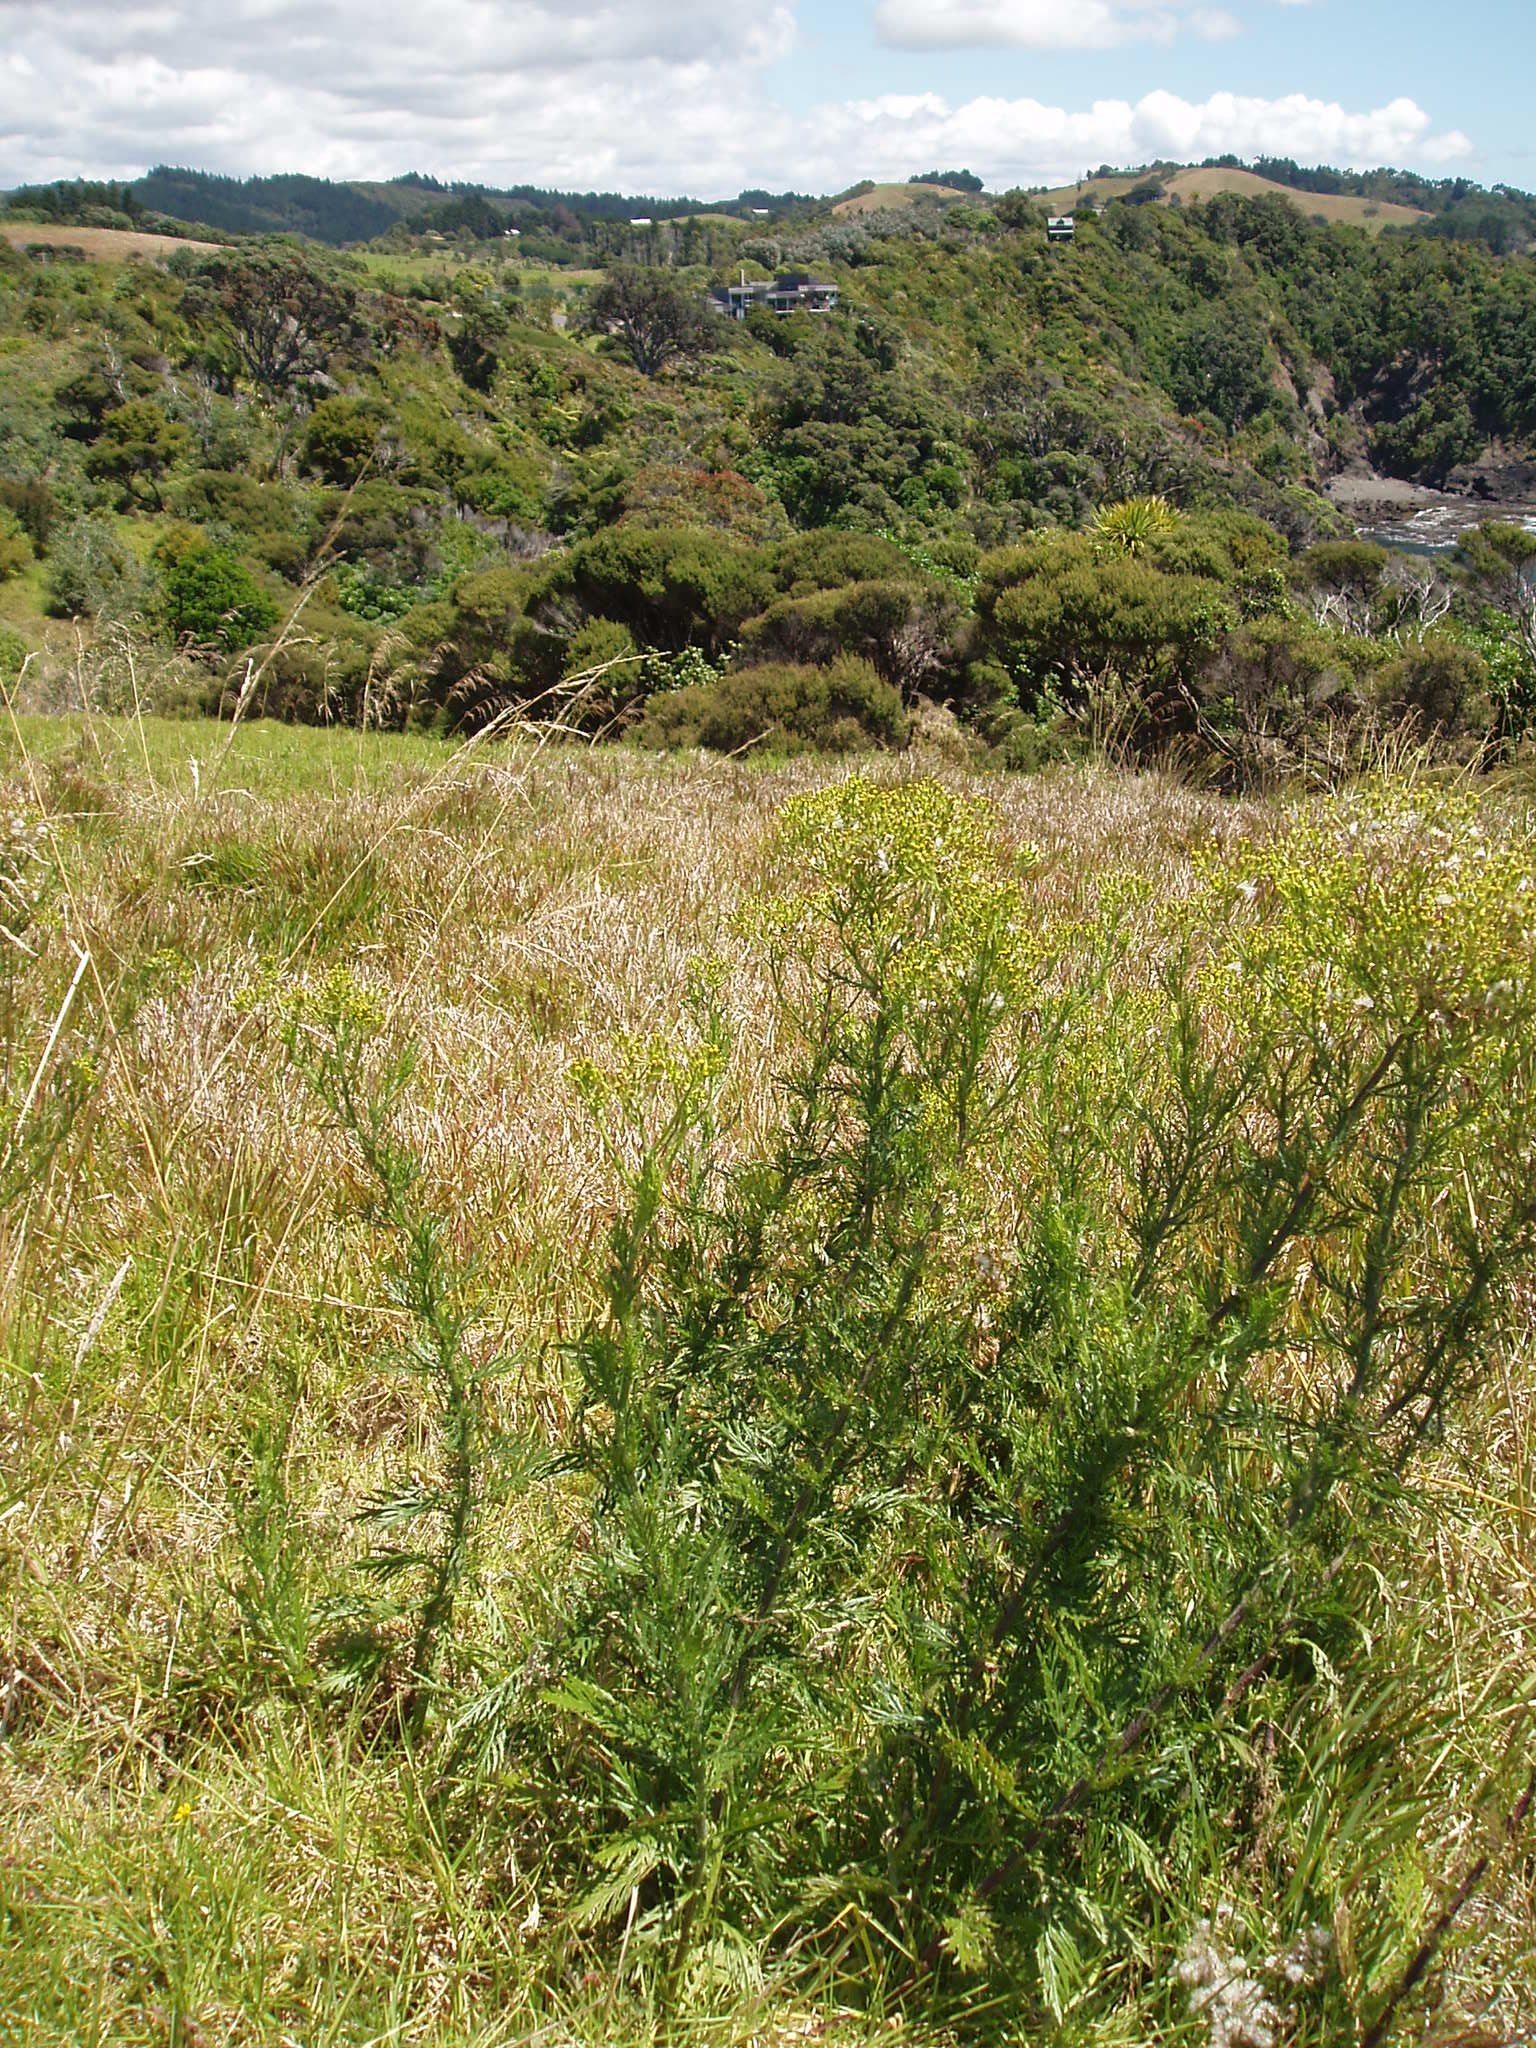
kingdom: Plantae
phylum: Tracheophyta
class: Magnoliopsida
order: Asterales
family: Asteraceae
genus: Senecio
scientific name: Senecio esleri
